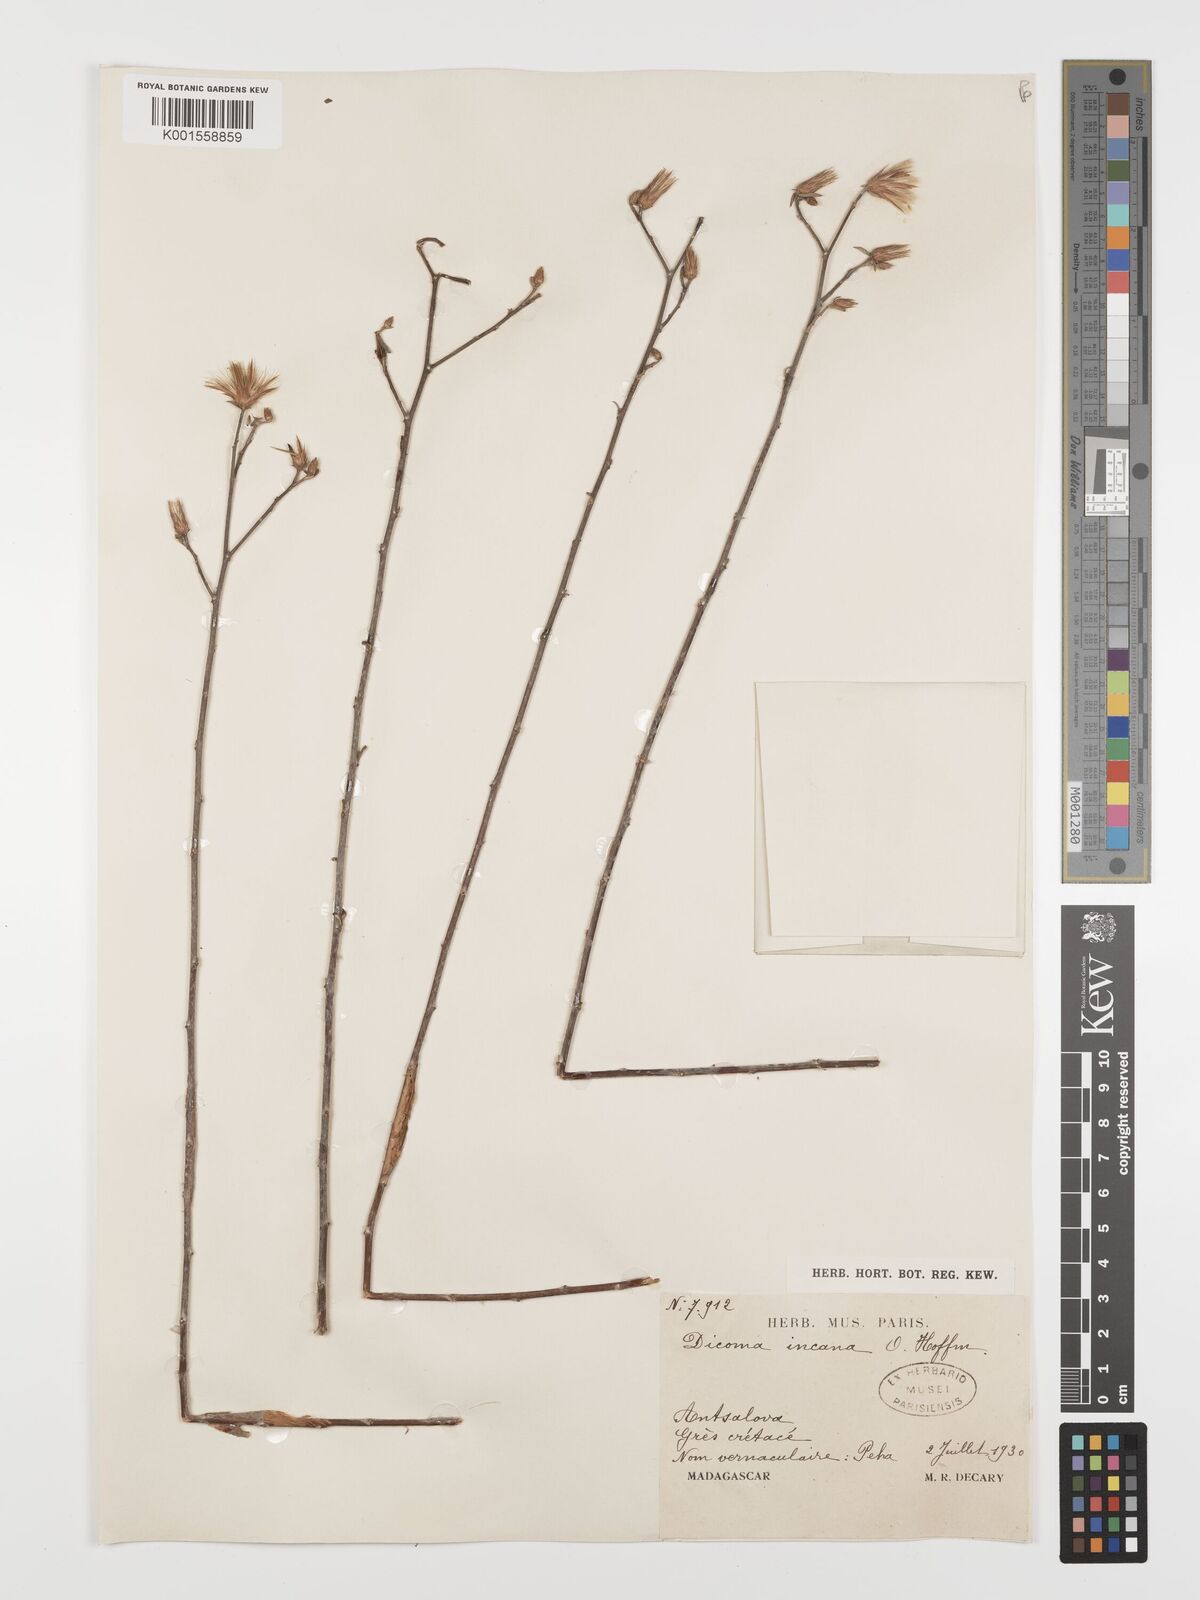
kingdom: Plantae
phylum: Tracheophyta
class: Magnoliopsida
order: Asterales
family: Asteraceae
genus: Dicoma
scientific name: Dicoma incana
